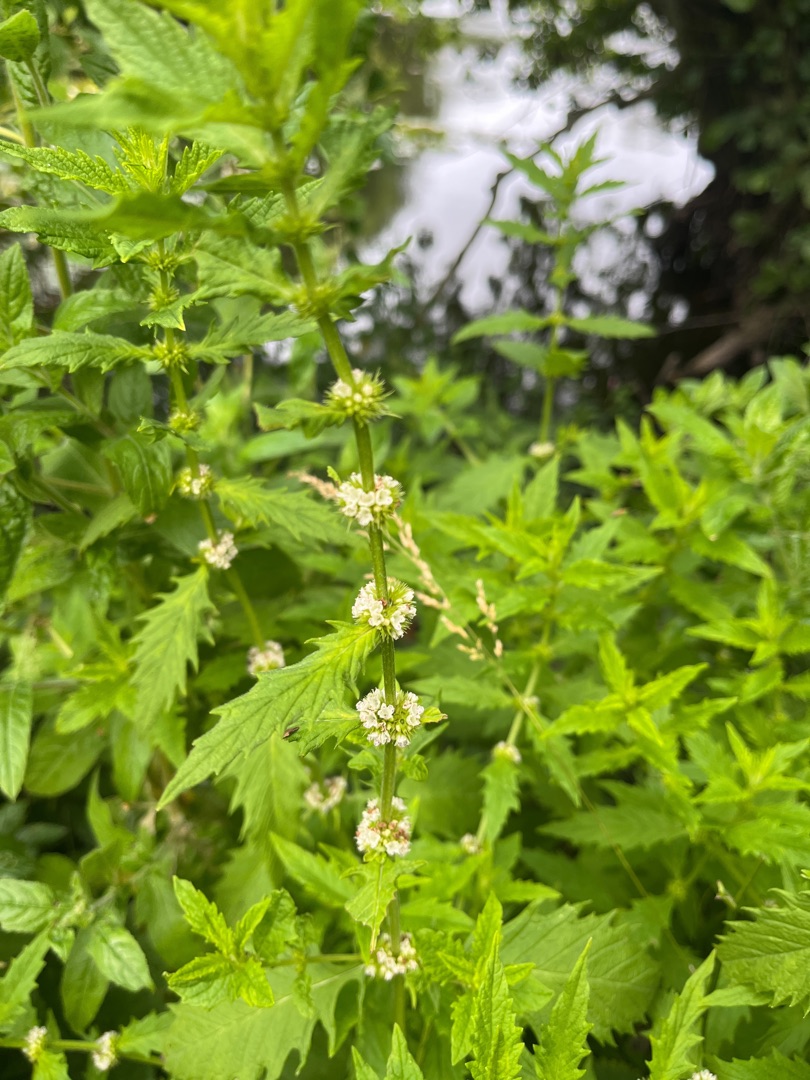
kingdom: Plantae
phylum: Tracheophyta
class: Magnoliopsida
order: Lamiales
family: Lamiaceae
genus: Lycopus
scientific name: Lycopus europaeus
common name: Sværtevæld
